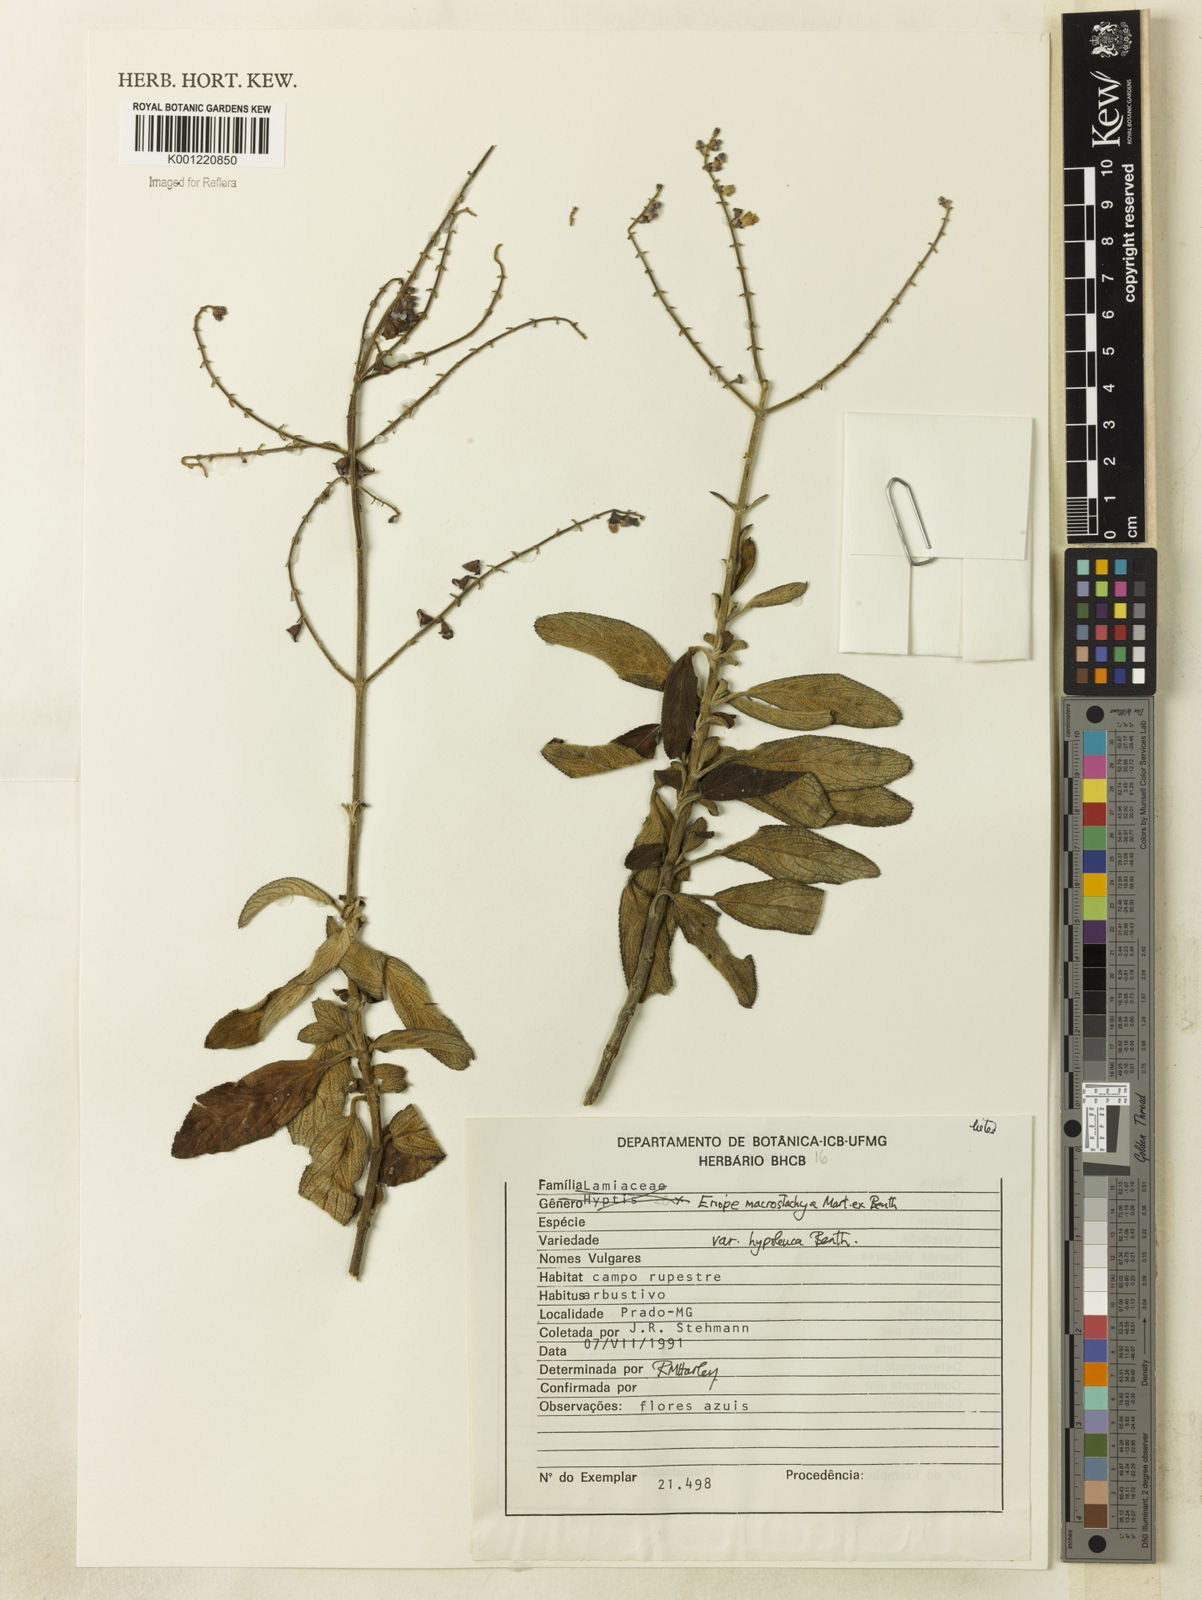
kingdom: Plantae
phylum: Tracheophyta
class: Magnoliopsida
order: Lamiales
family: Lamiaceae
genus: Eriope
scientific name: Eriope macrostachya
